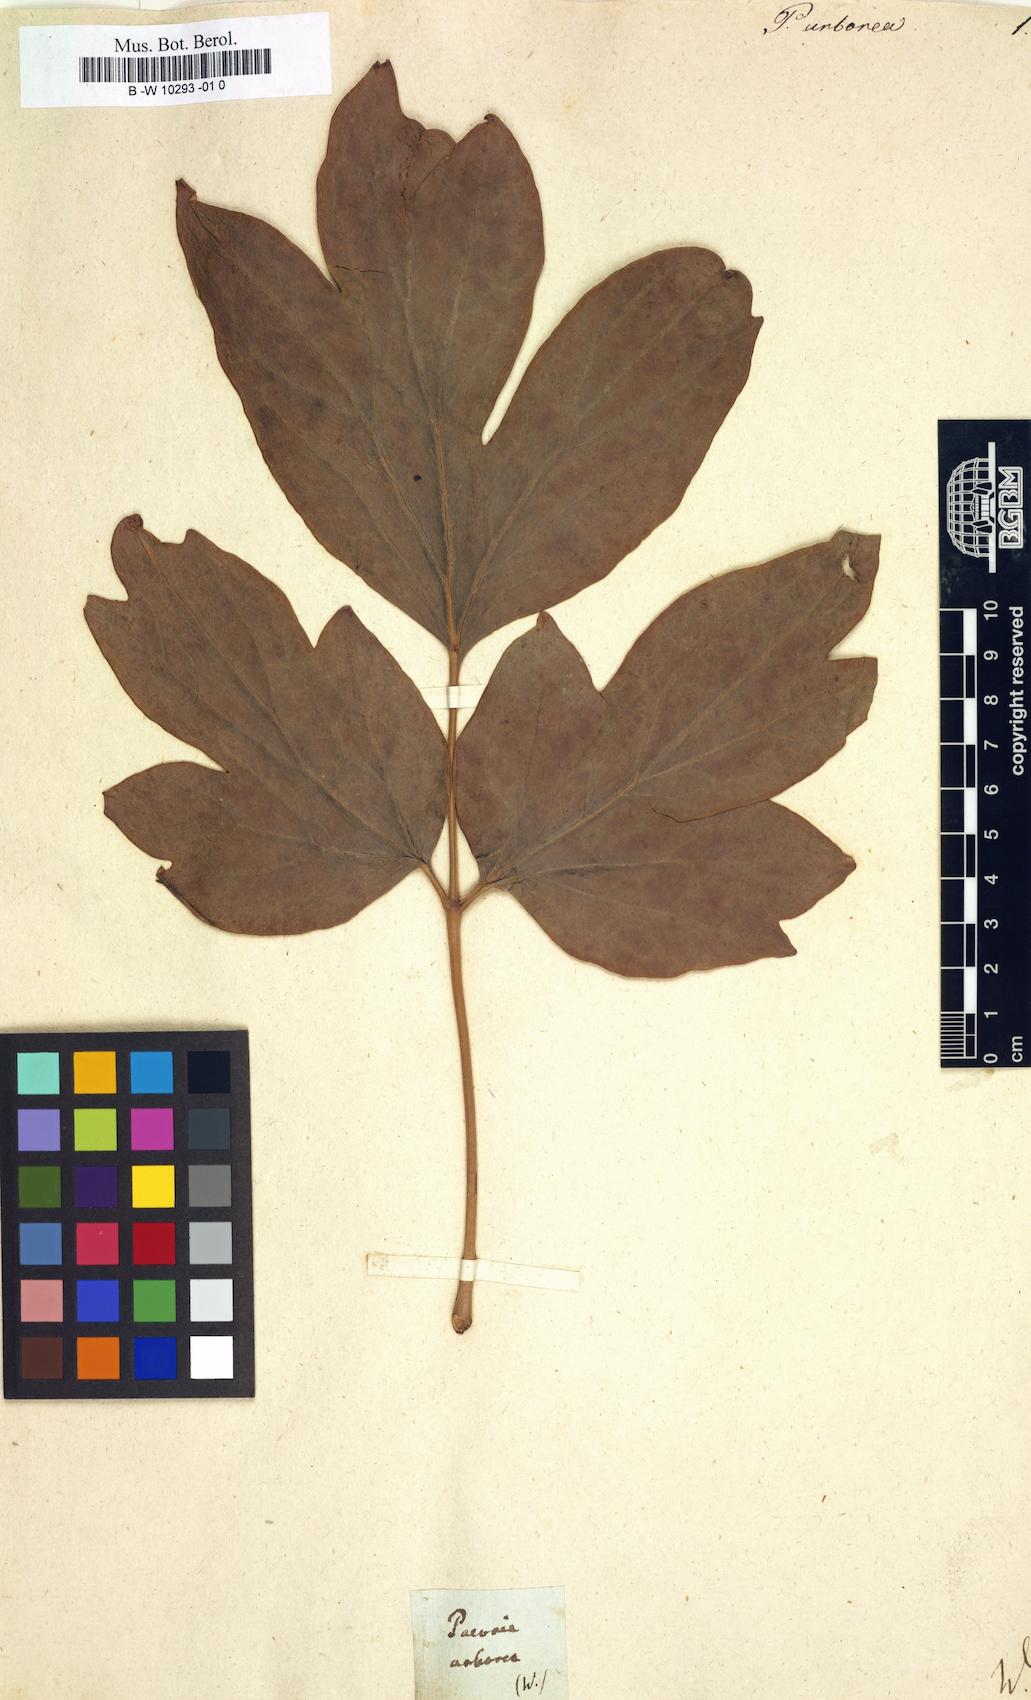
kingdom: Plantae
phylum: Tracheophyta
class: Magnoliopsida
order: Saxifragales
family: Paeoniaceae
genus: Paeonia
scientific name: Paeonia suffruticosa
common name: Moutan peony
